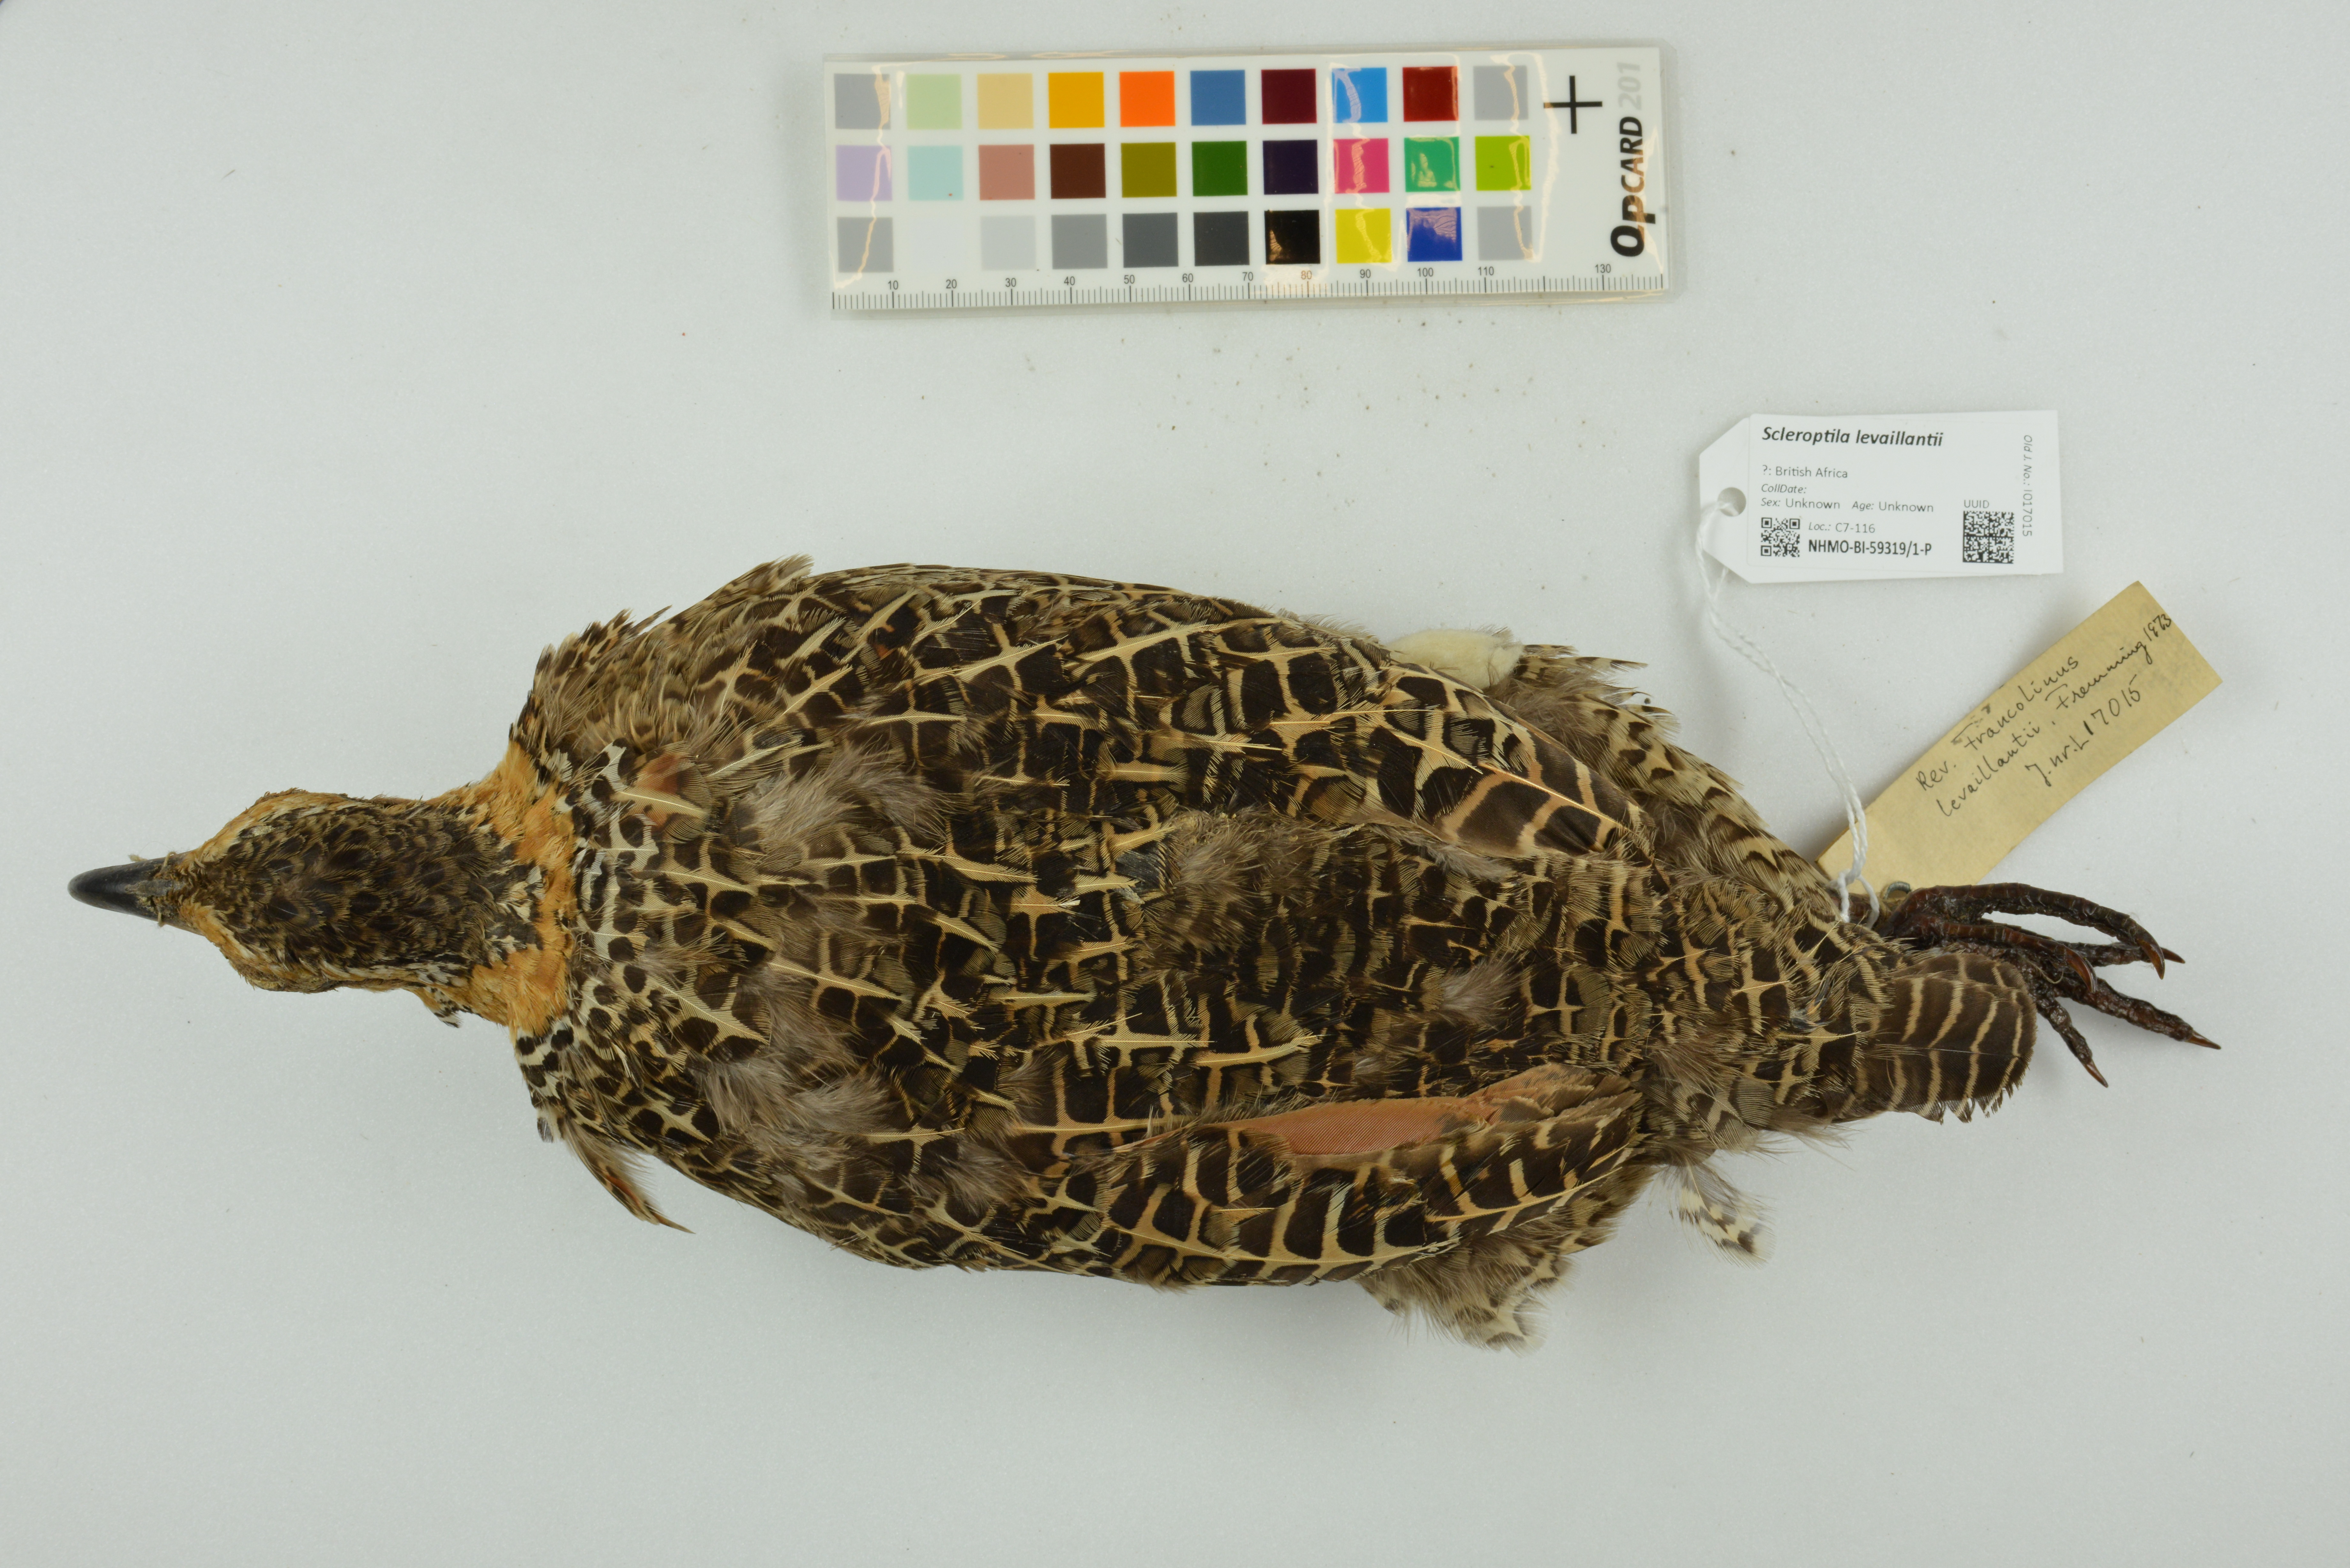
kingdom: Animalia
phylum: Chordata
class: Aves
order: Galliformes
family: Phasianidae
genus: Scleroptila
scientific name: Scleroptila levaillantii
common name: Red-winged francolin
